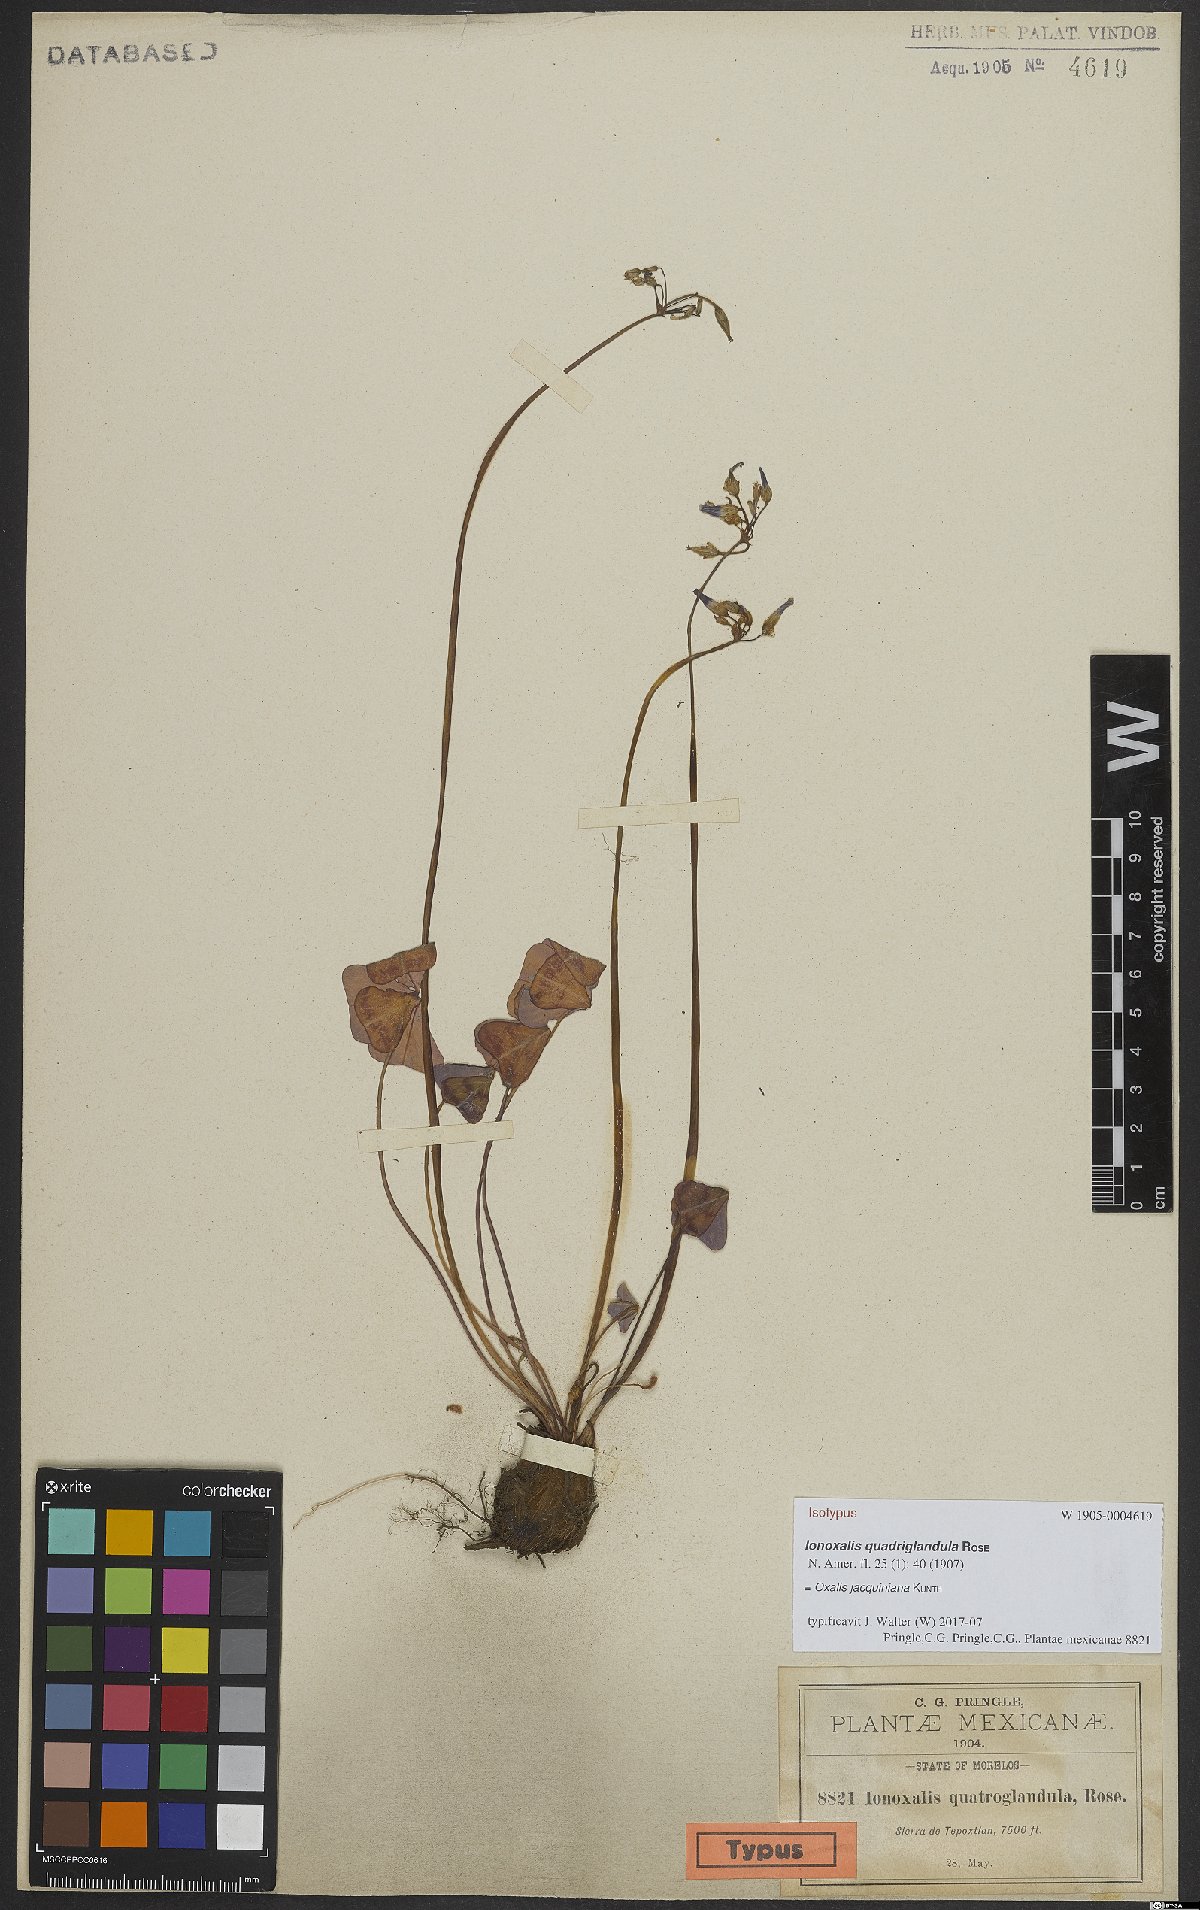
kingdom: Plantae
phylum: Tracheophyta
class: Magnoliopsida
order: Oxalidales
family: Oxalidaceae
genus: Oxalis
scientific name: Oxalis jacquiniana
